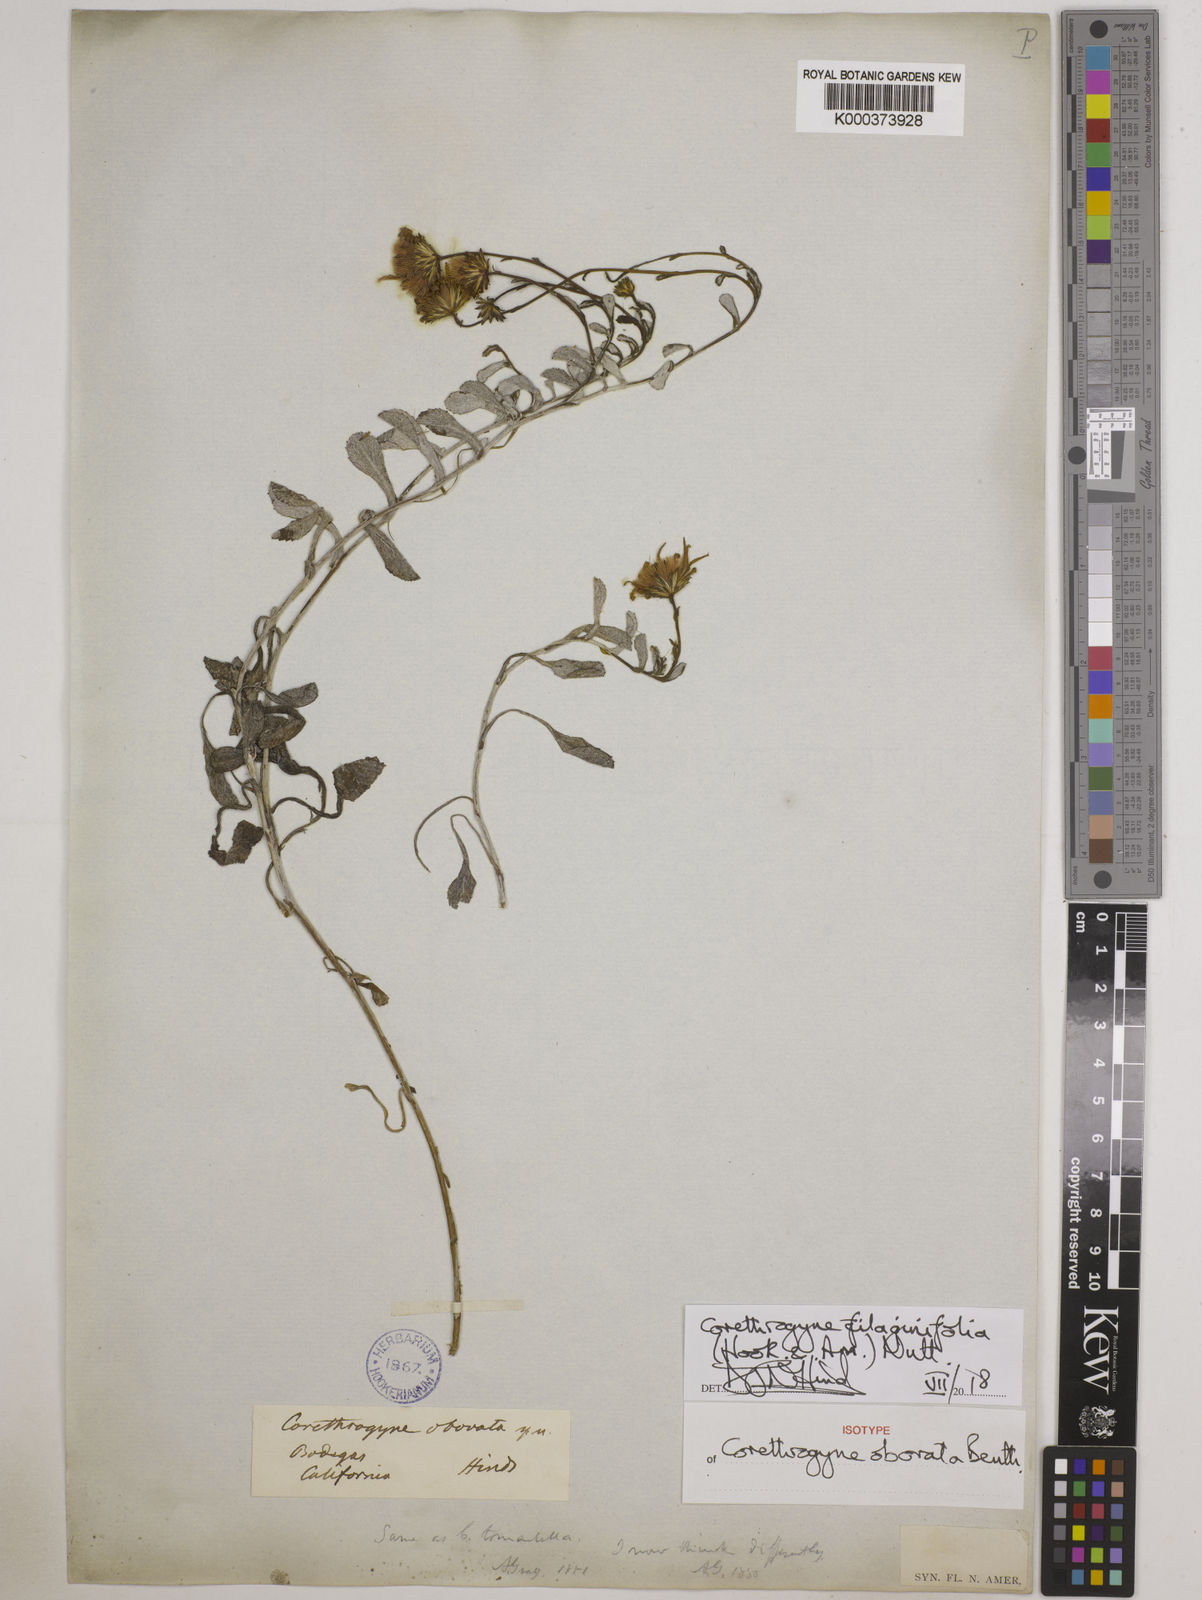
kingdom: Plantae
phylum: Tracheophyta
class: Magnoliopsida
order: Asterales
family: Asteraceae
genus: Corethrogyne
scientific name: Corethrogyne filaginifolia
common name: Sand-aster
